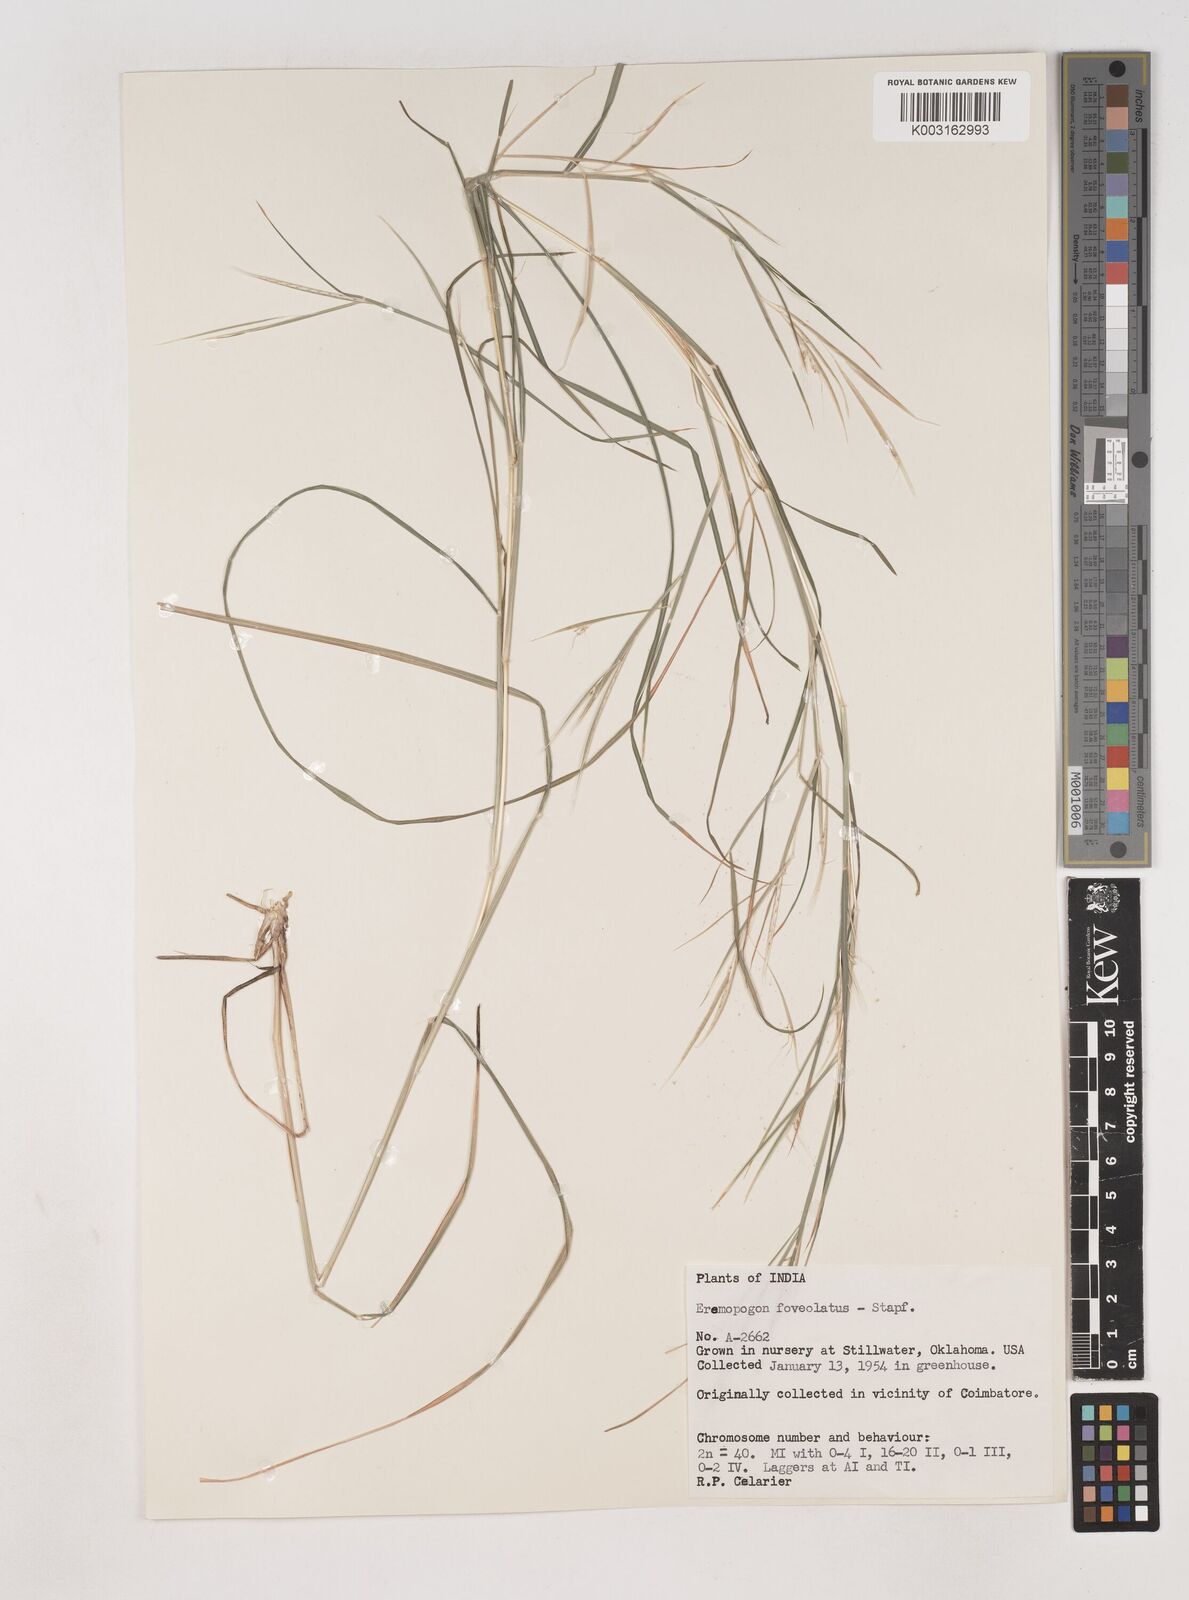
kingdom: Plantae
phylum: Tracheophyta
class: Liliopsida
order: Poales
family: Poaceae
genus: Dichanthium
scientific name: Dichanthium foveolatum
